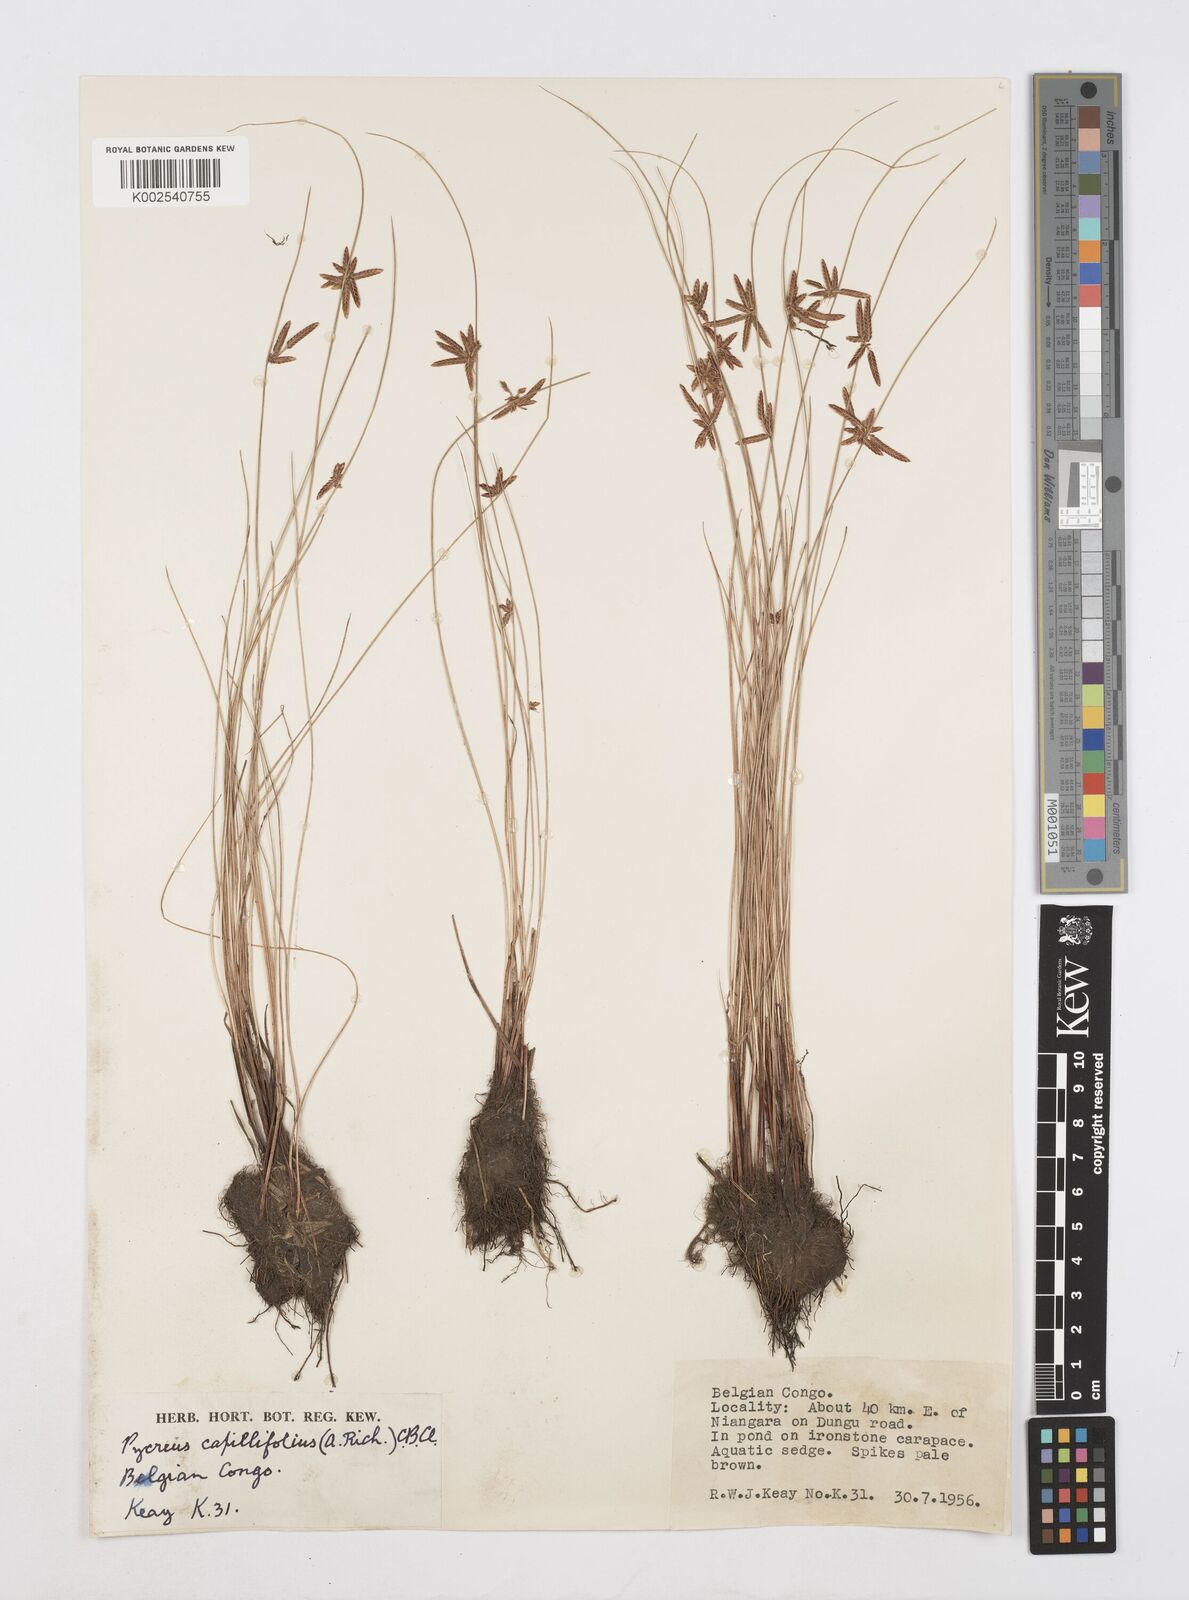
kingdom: Plantae
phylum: Tracheophyta
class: Liliopsida
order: Poales
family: Cyperaceae
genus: Cyperus
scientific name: Cyperus capillifolius
